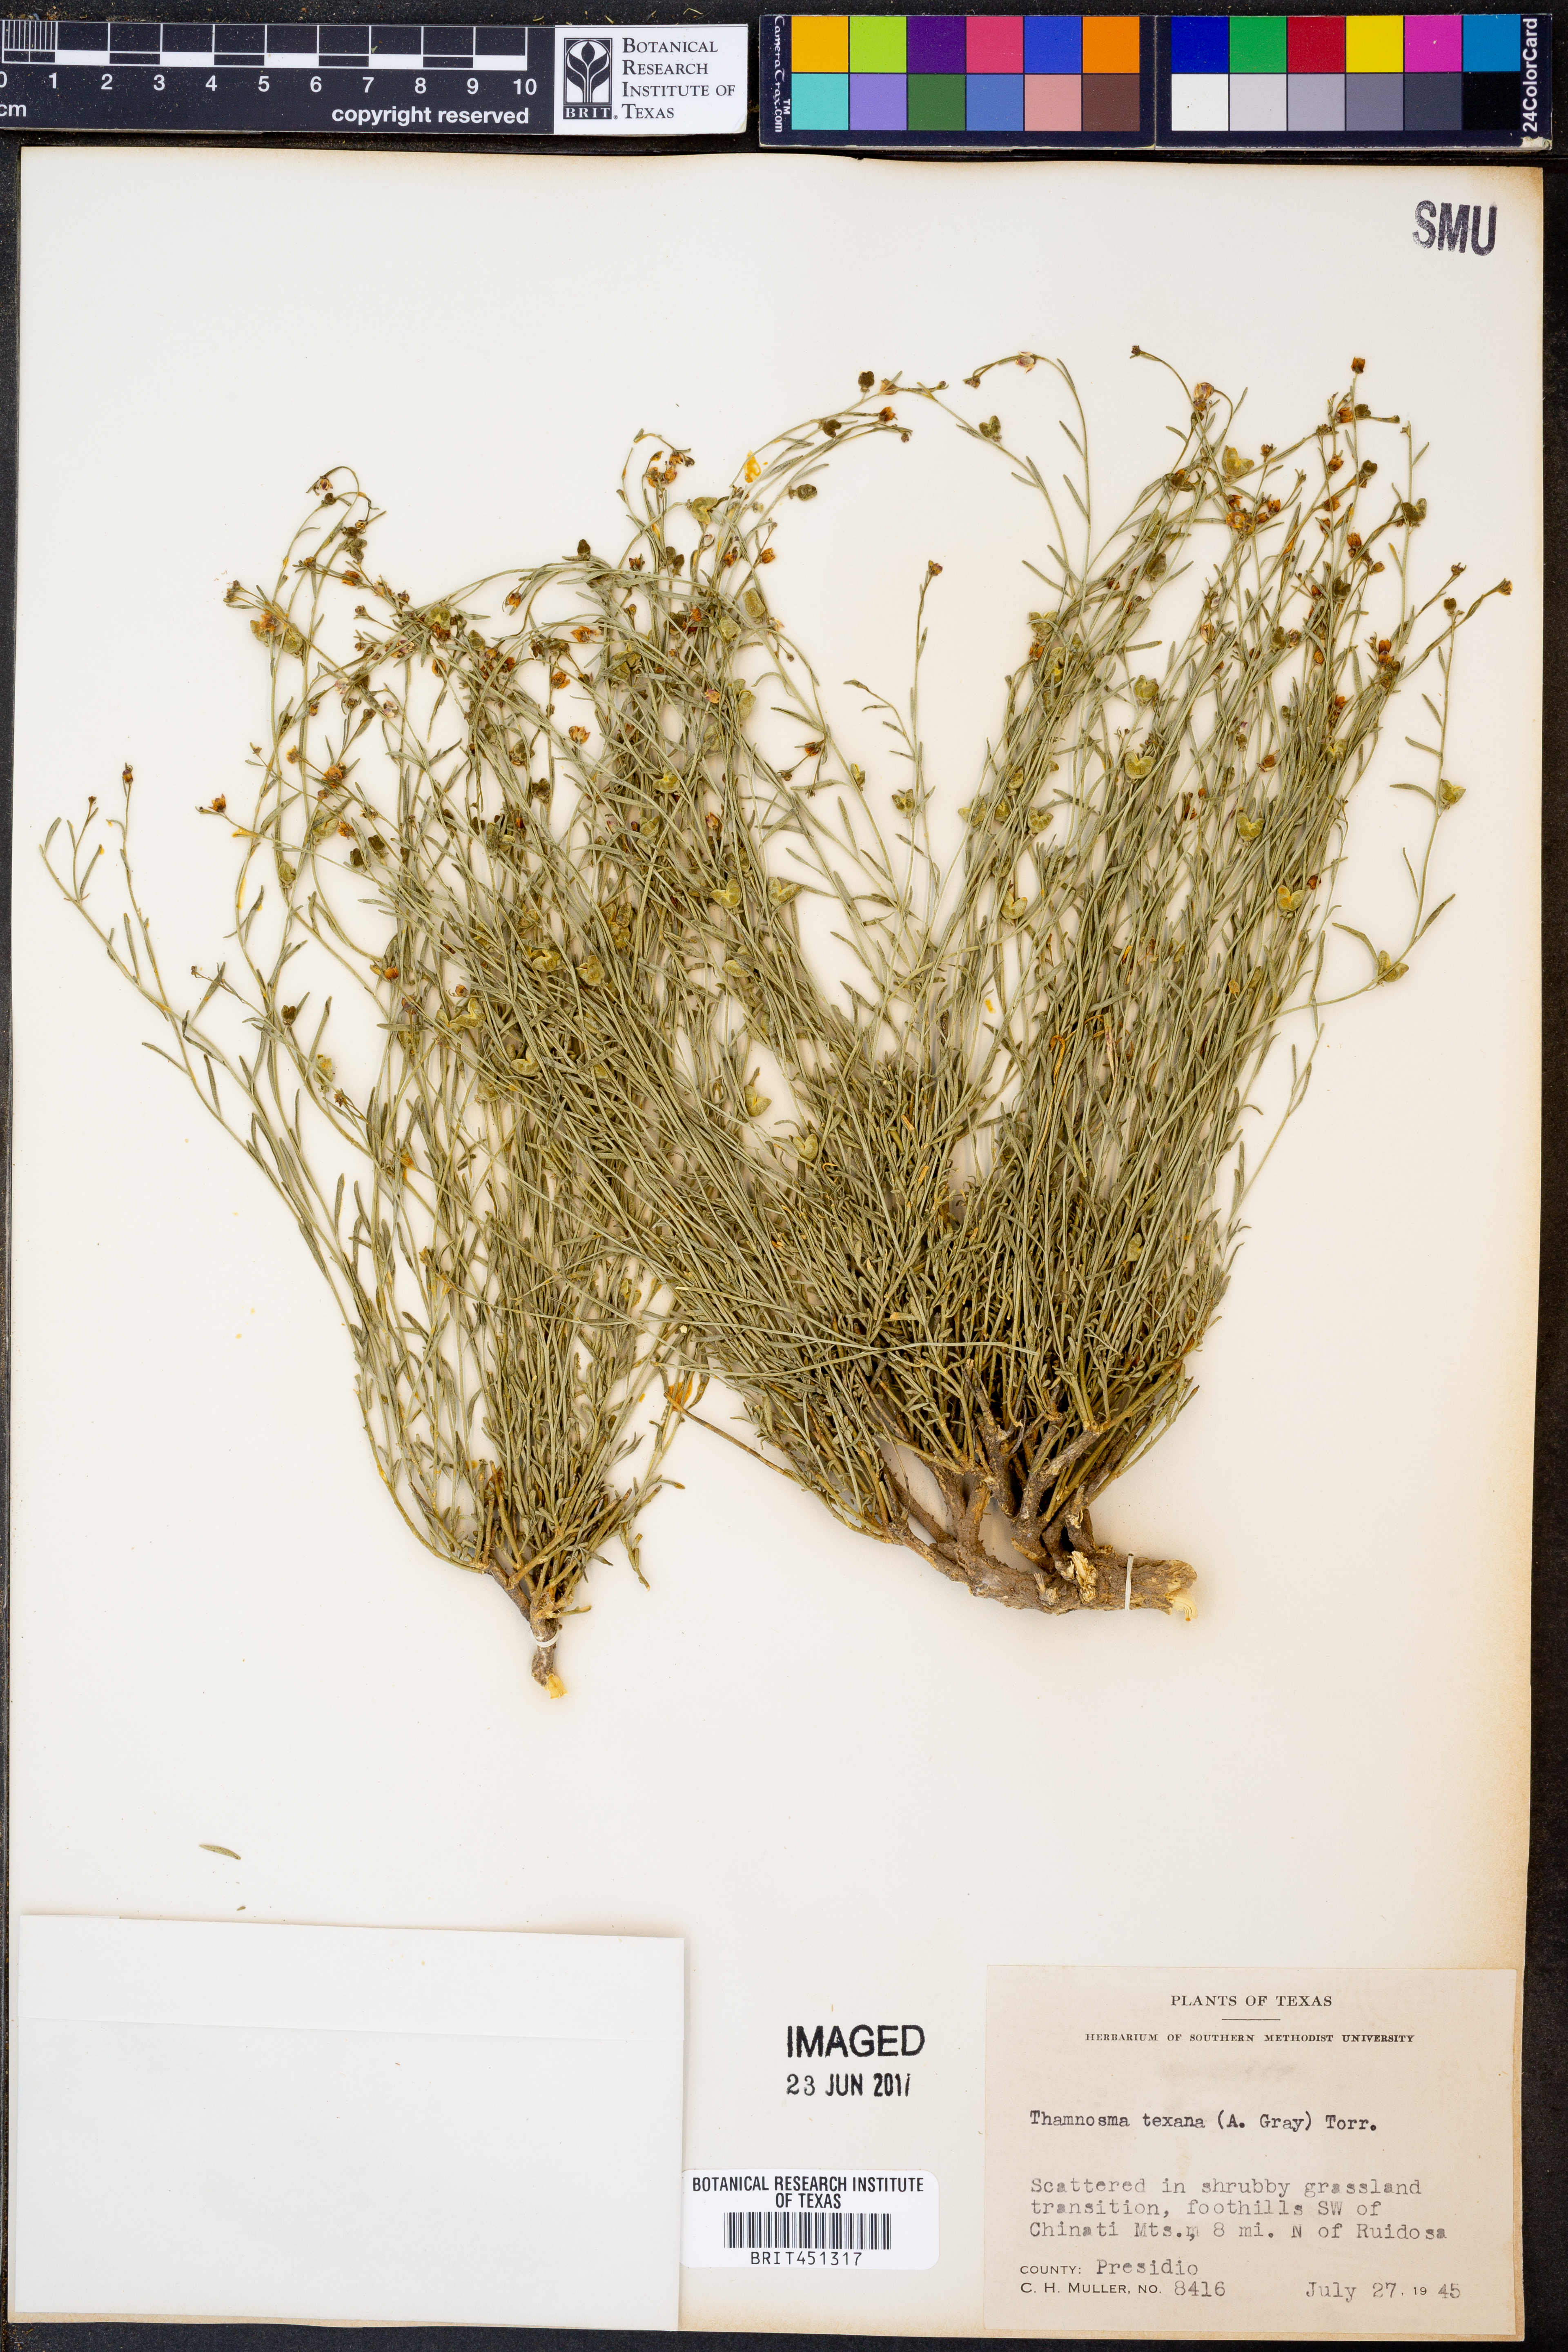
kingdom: Plantae
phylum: Tracheophyta
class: Magnoliopsida
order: Sapindales
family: Rutaceae
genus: Thamnosma
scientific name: Thamnosma texana
